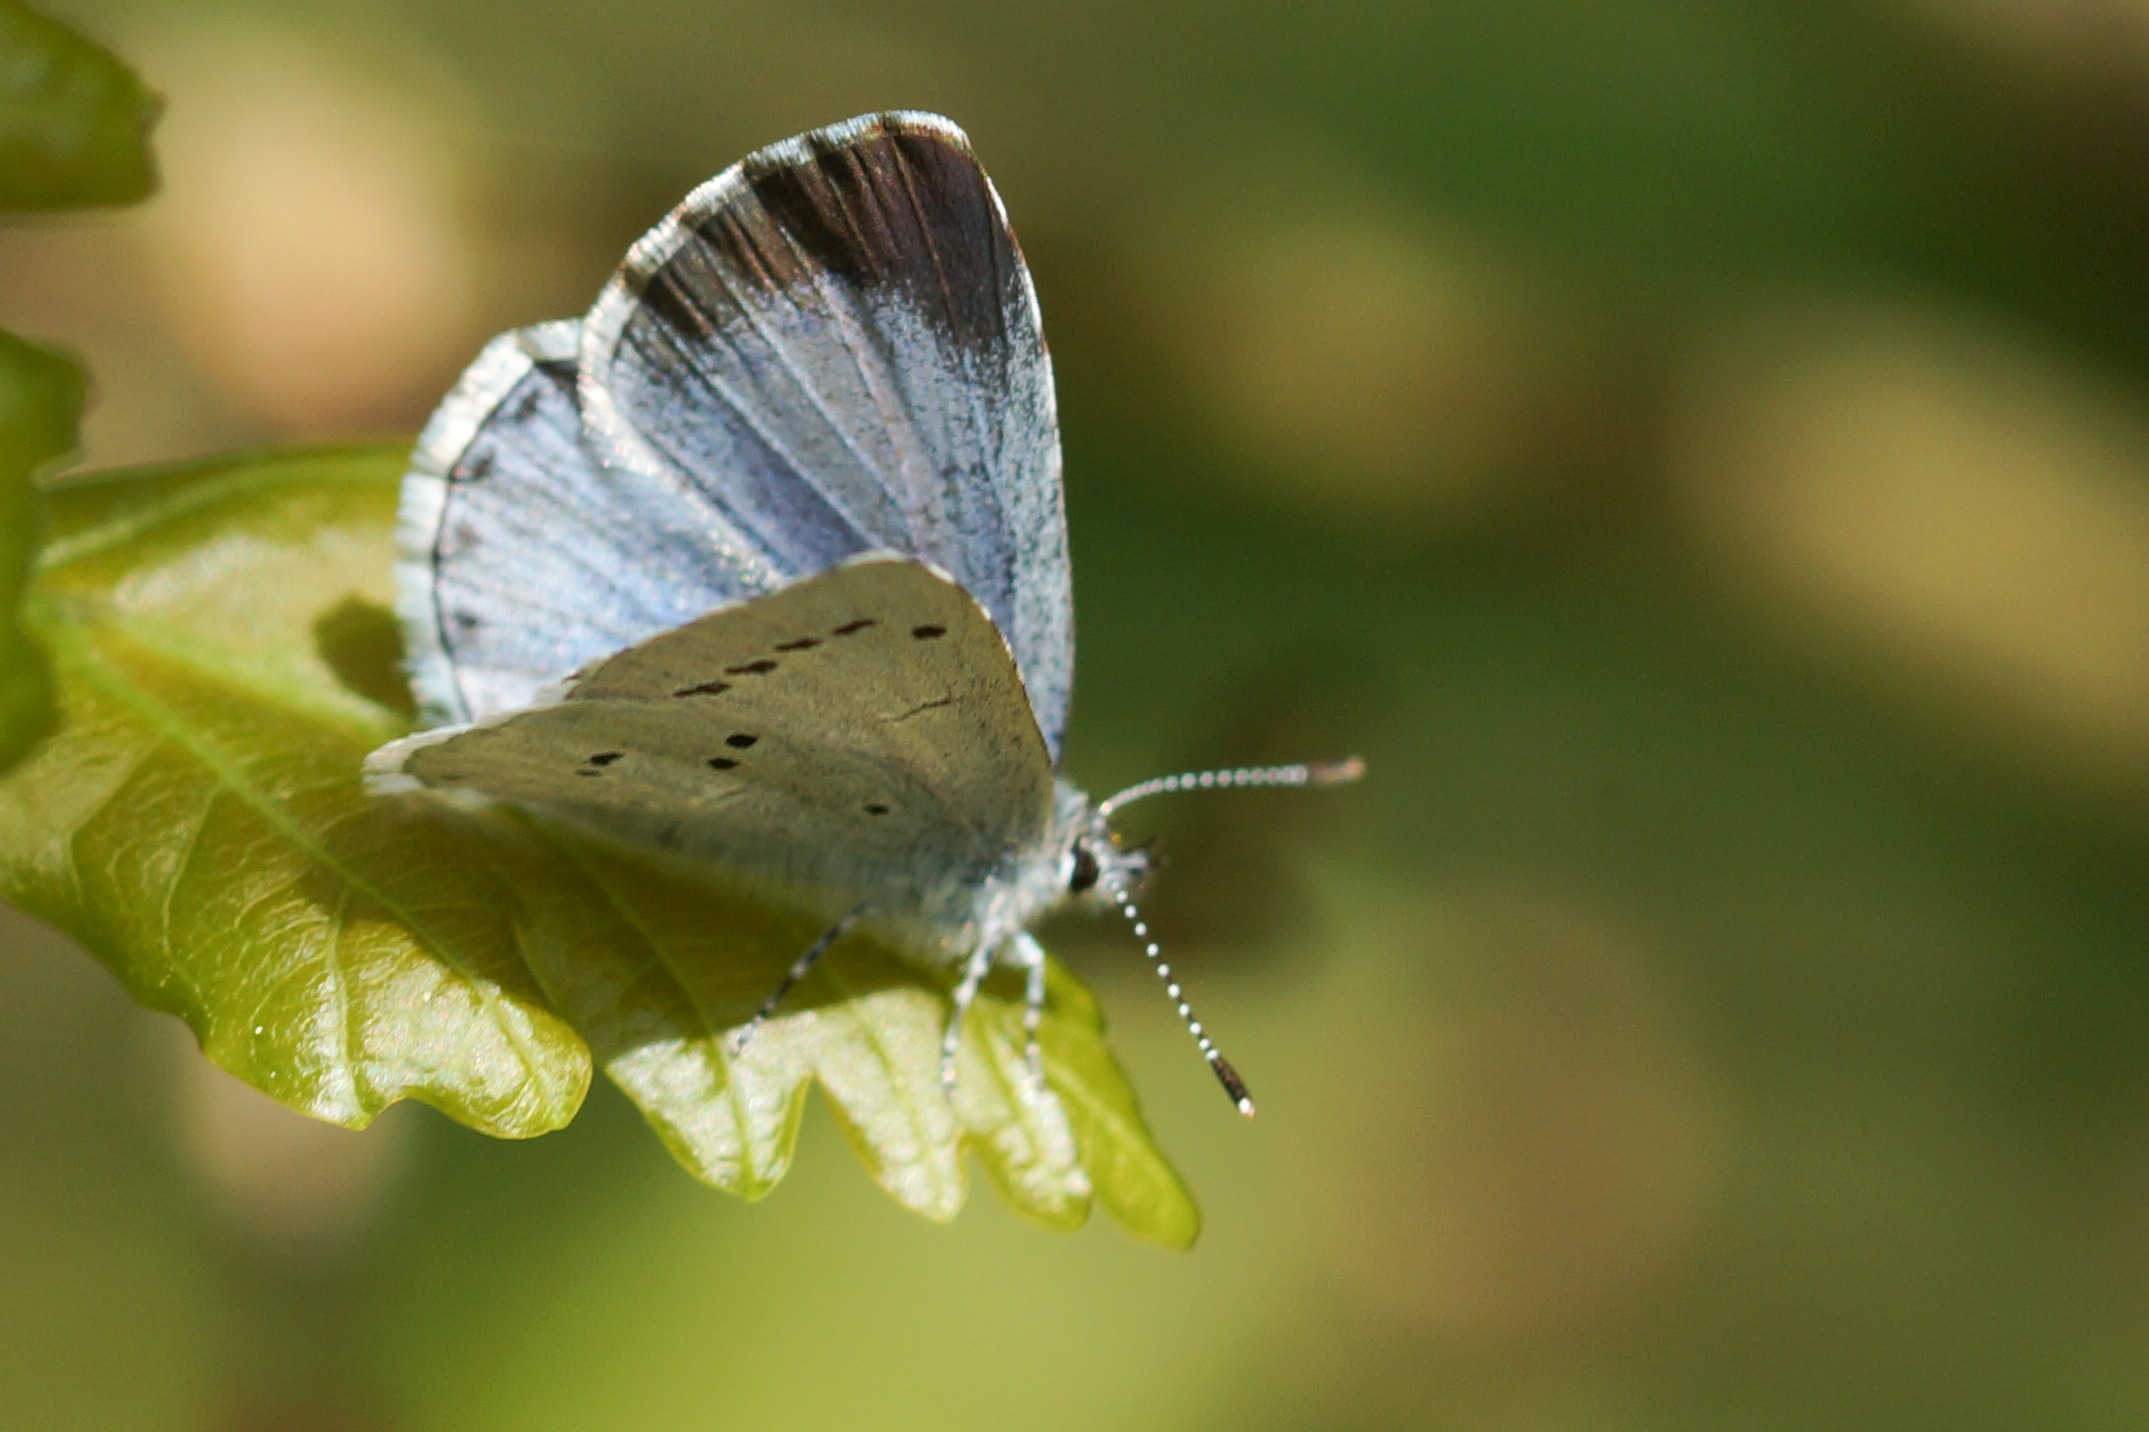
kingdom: Animalia
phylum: Arthropoda
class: Insecta
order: Lepidoptera
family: Lycaenidae
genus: Celastrina
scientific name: Celastrina argiolus
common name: Skovblåfugl
